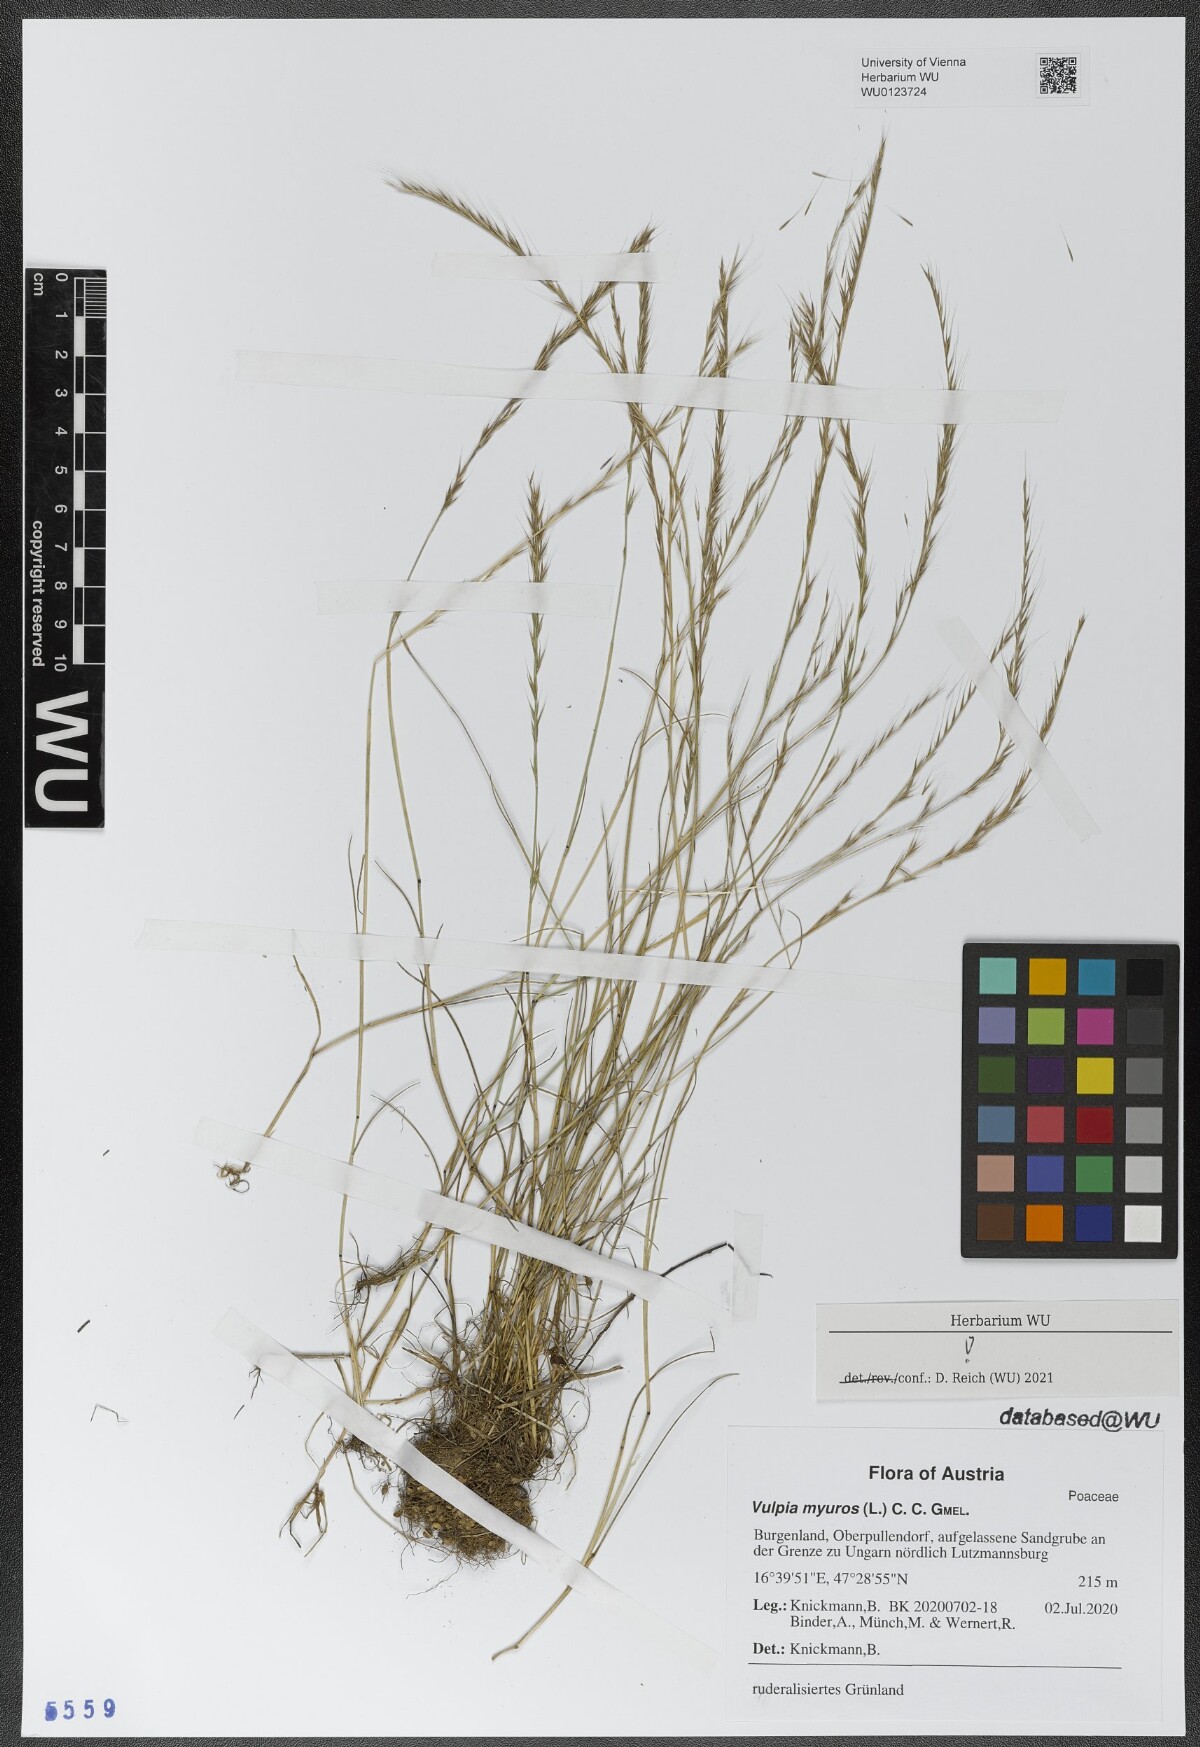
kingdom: Plantae
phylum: Tracheophyta
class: Liliopsida
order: Poales
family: Poaceae
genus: Festuca
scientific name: Festuca myuros
